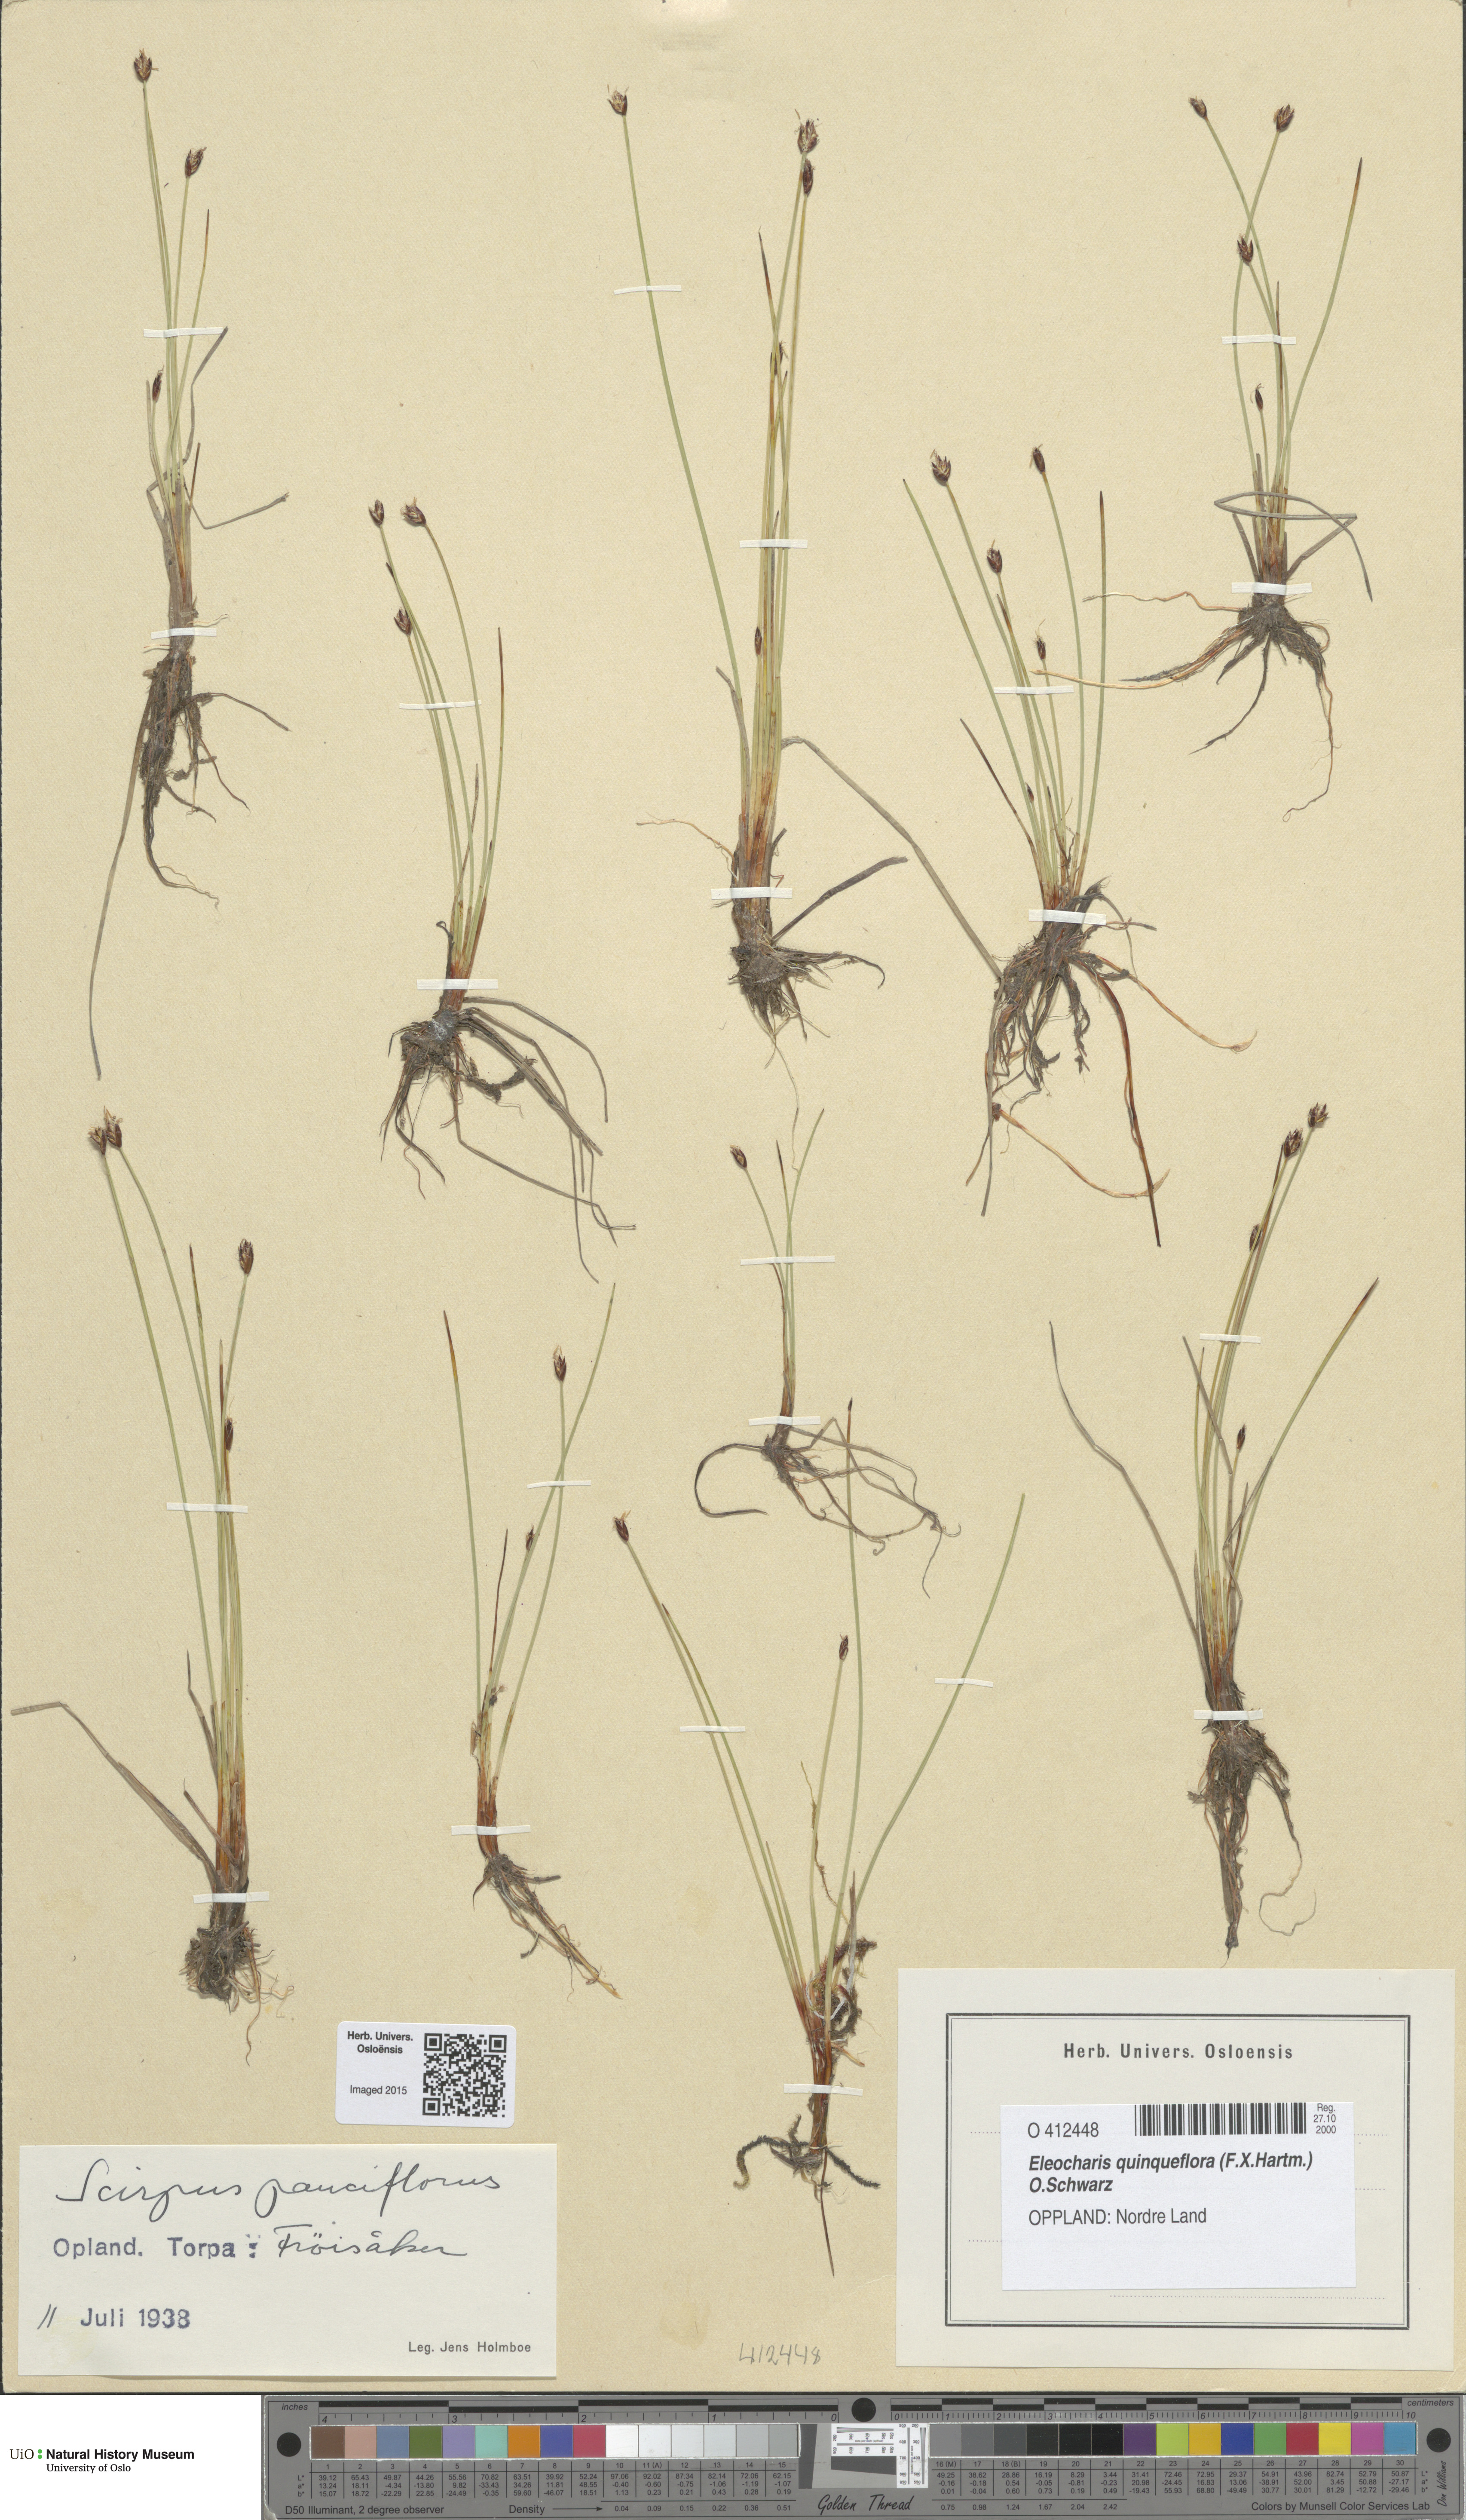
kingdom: Plantae
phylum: Tracheophyta
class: Liliopsida
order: Poales
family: Cyperaceae
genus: Eleocharis
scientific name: Eleocharis quinqueflora
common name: Few-flowered spike-rush
